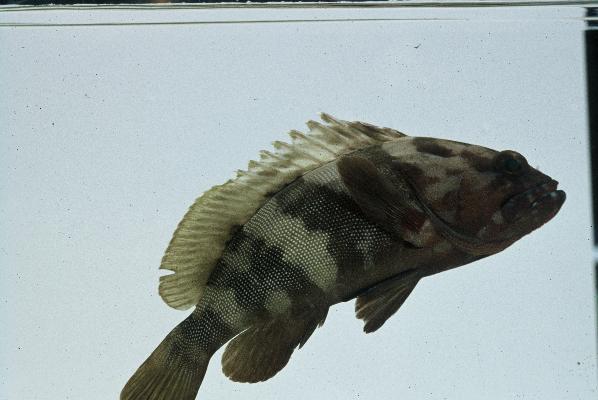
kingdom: Animalia
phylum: Chordata
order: Perciformes
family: Serranidae
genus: Epinephelus
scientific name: Epinephelus rivulatus
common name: Halfmoon grouper
